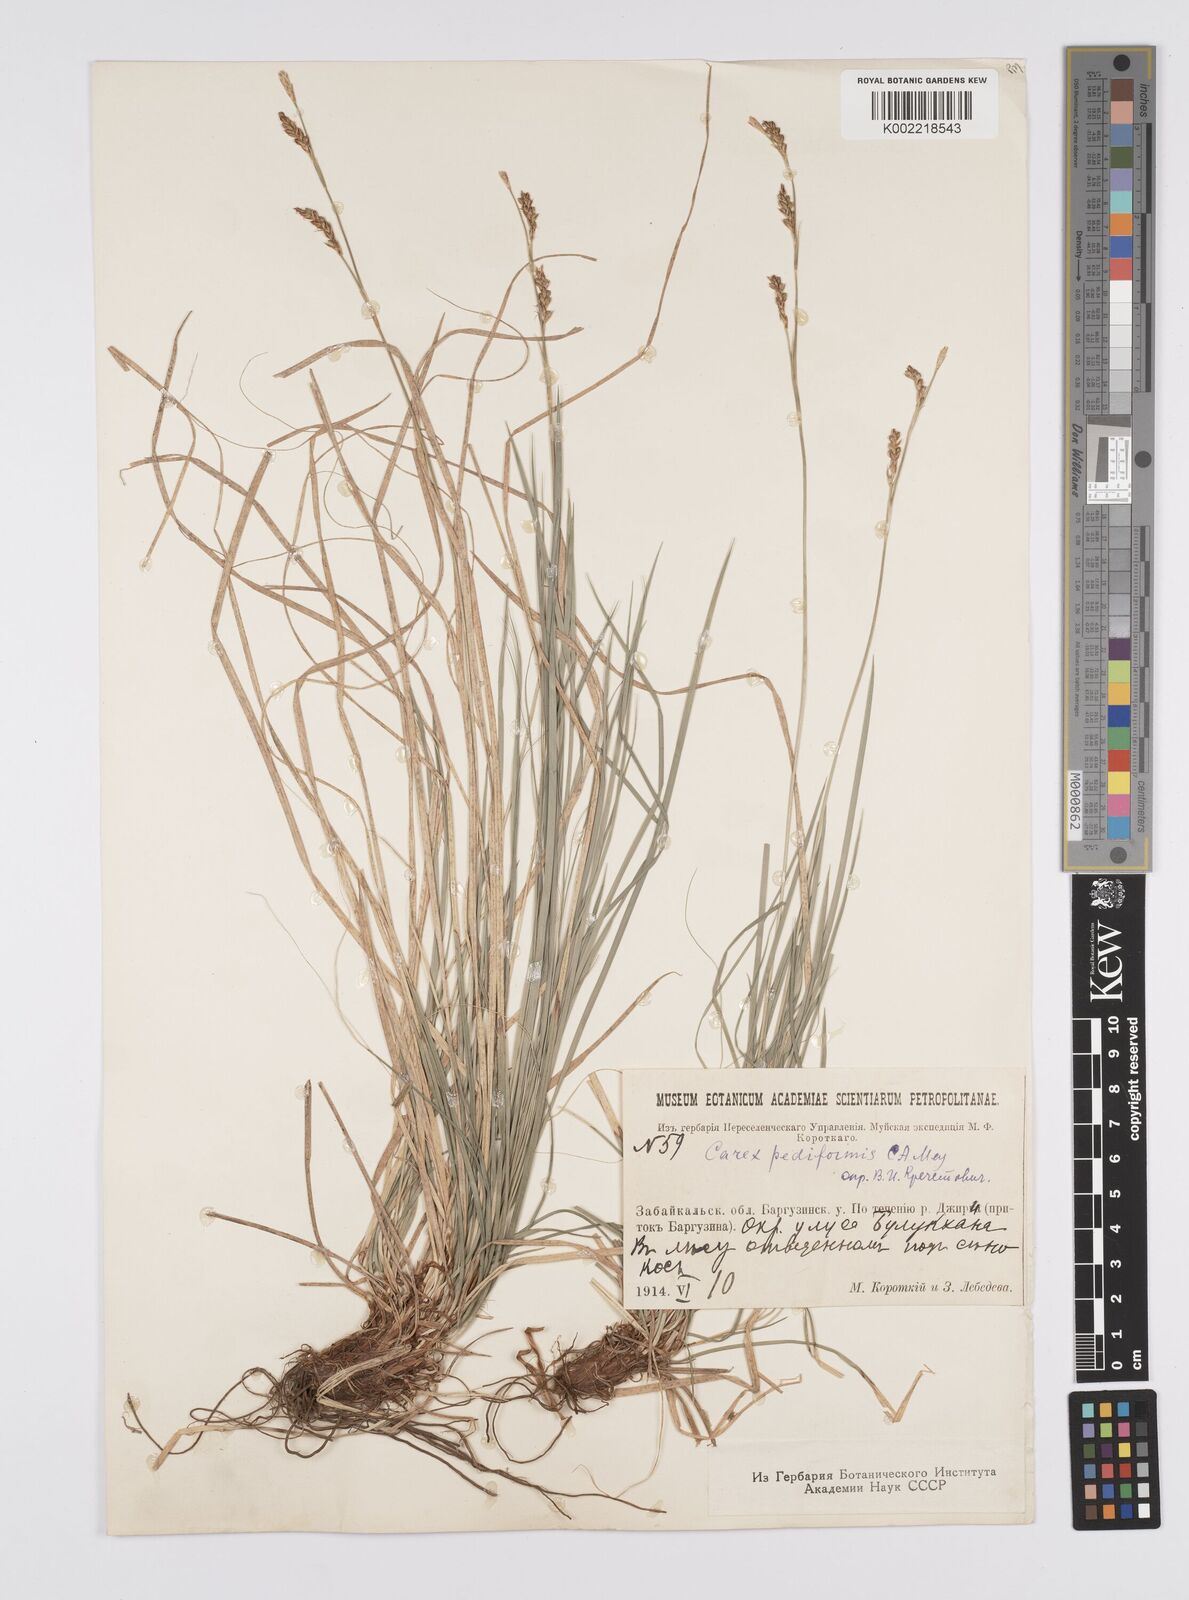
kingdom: Plantae
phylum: Tracheophyta
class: Liliopsida
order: Poales
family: Cyperaceae
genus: Carex
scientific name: Carex pediformis
